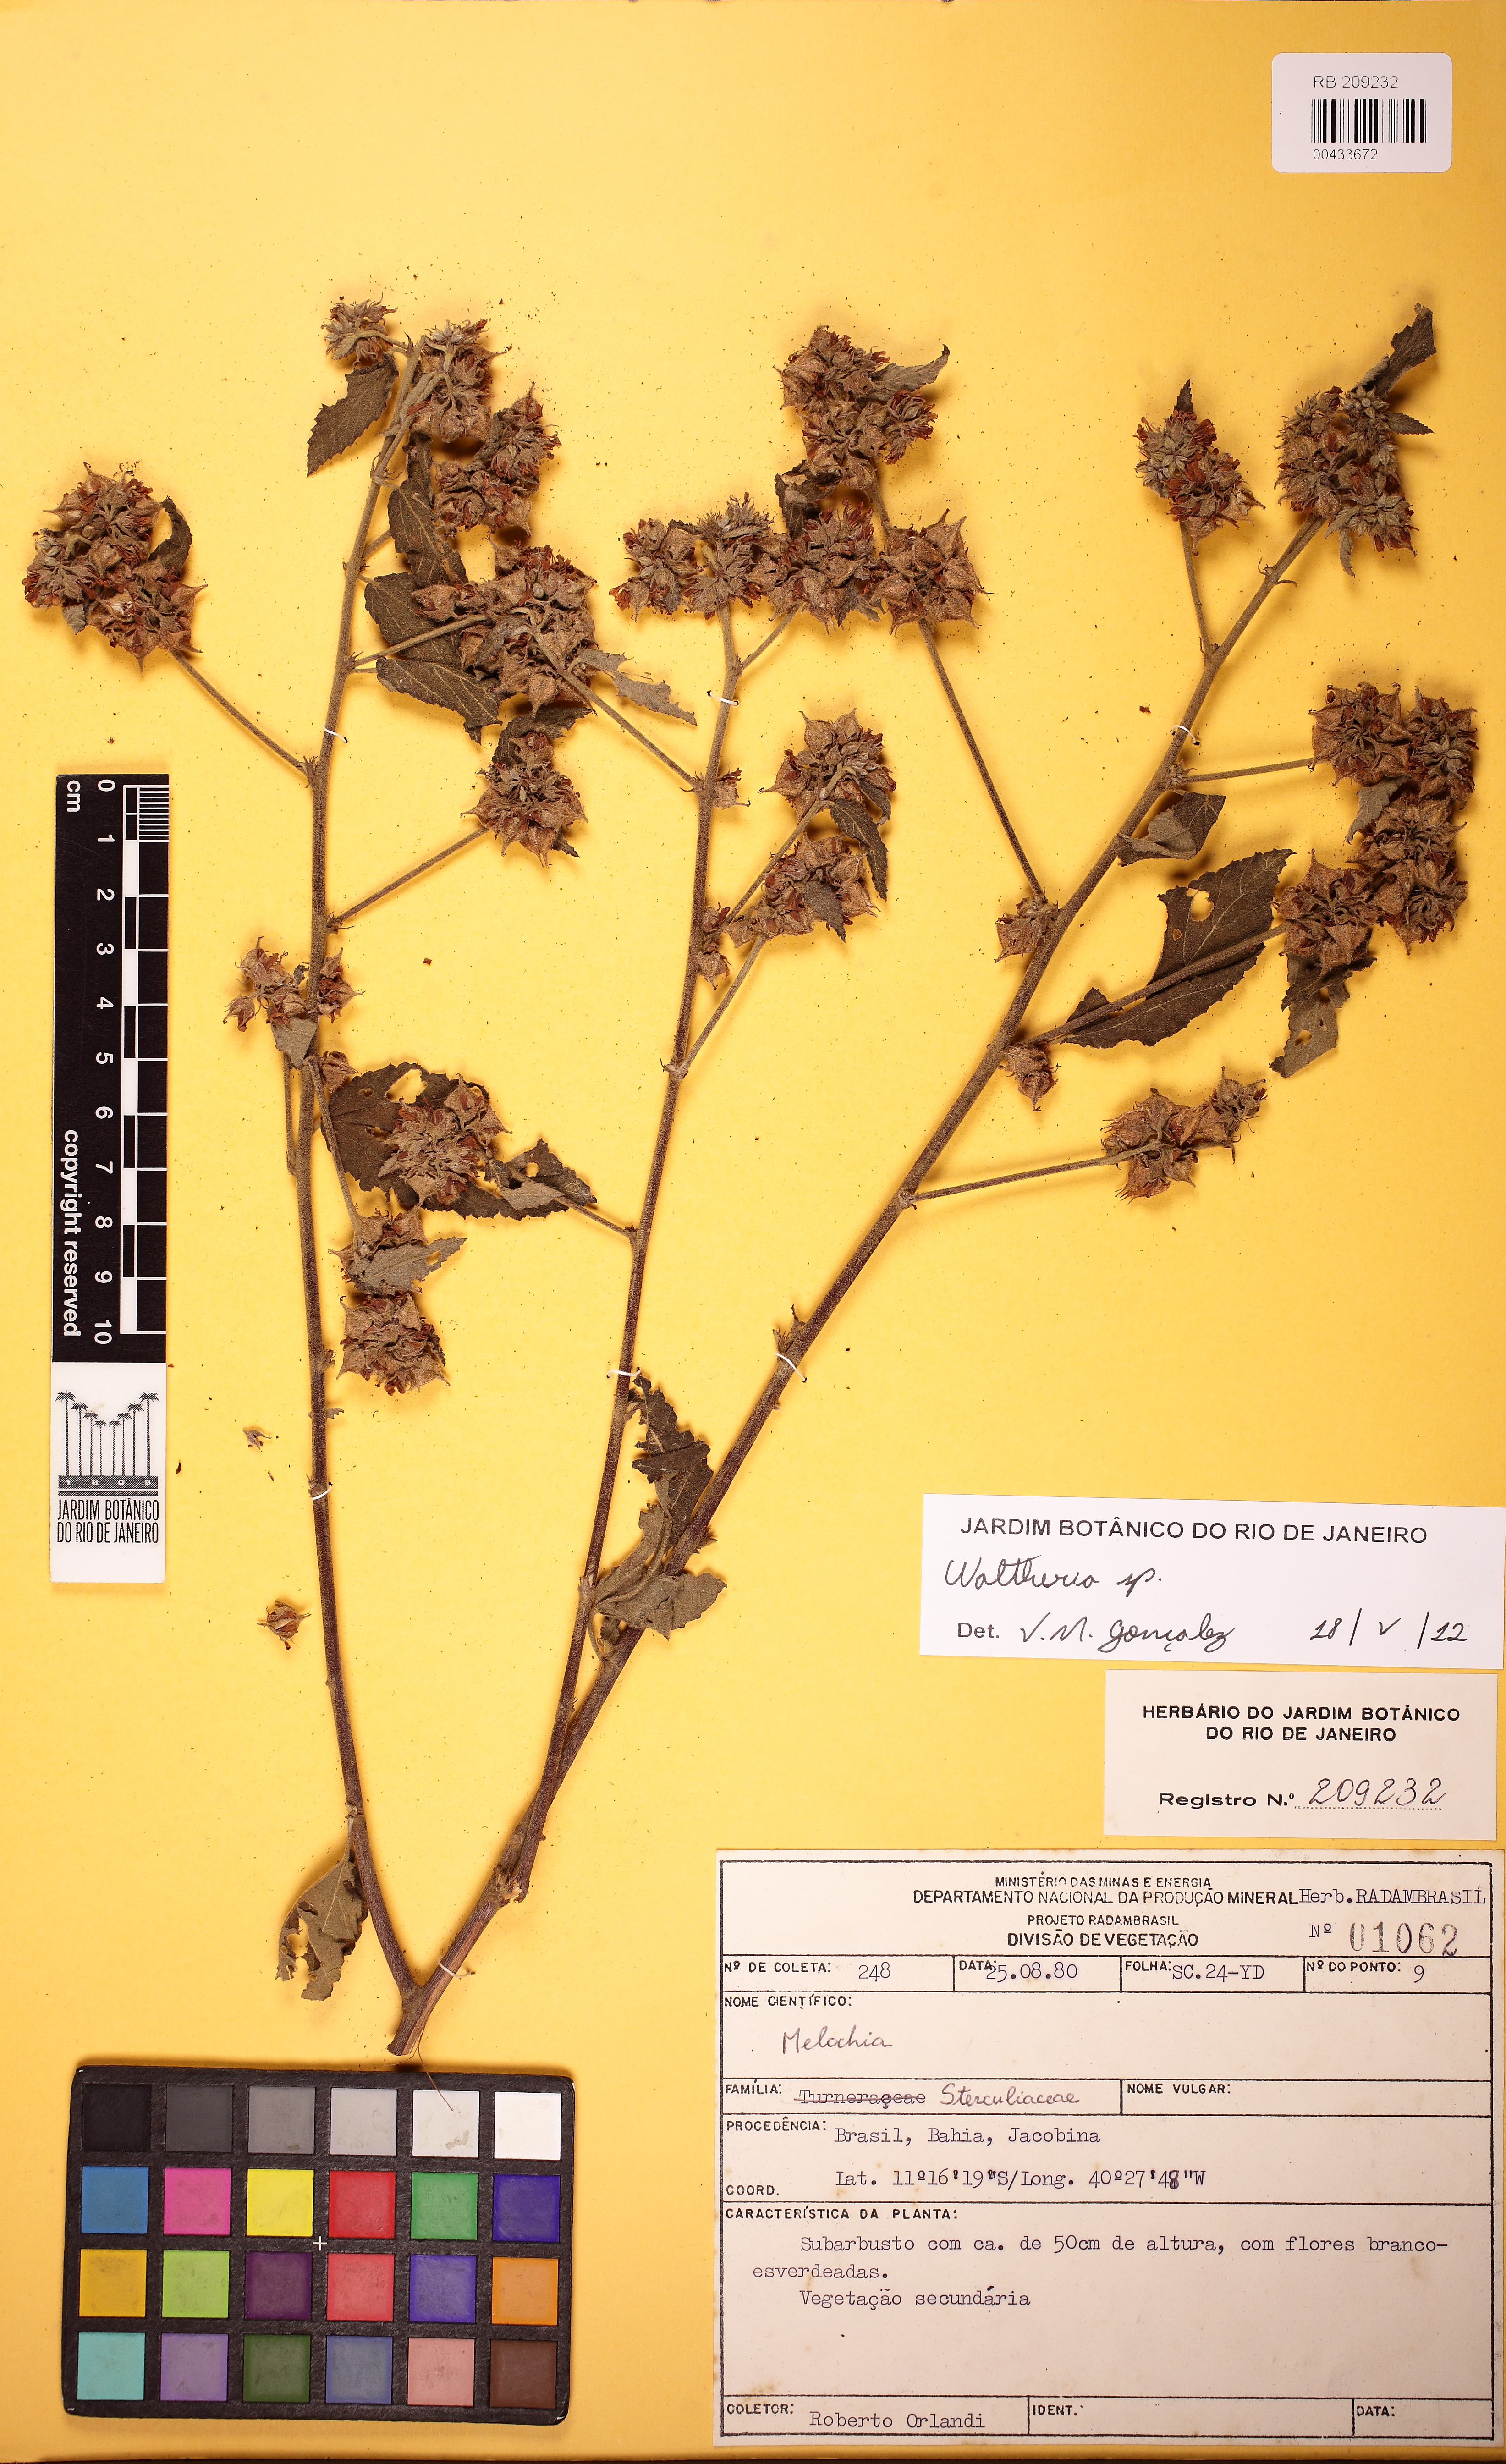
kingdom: Plantae
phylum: Tracheophyta
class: Magnoliopsida
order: Malvales
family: Malvaceae
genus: Melochia
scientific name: Melochia betonicifolia
